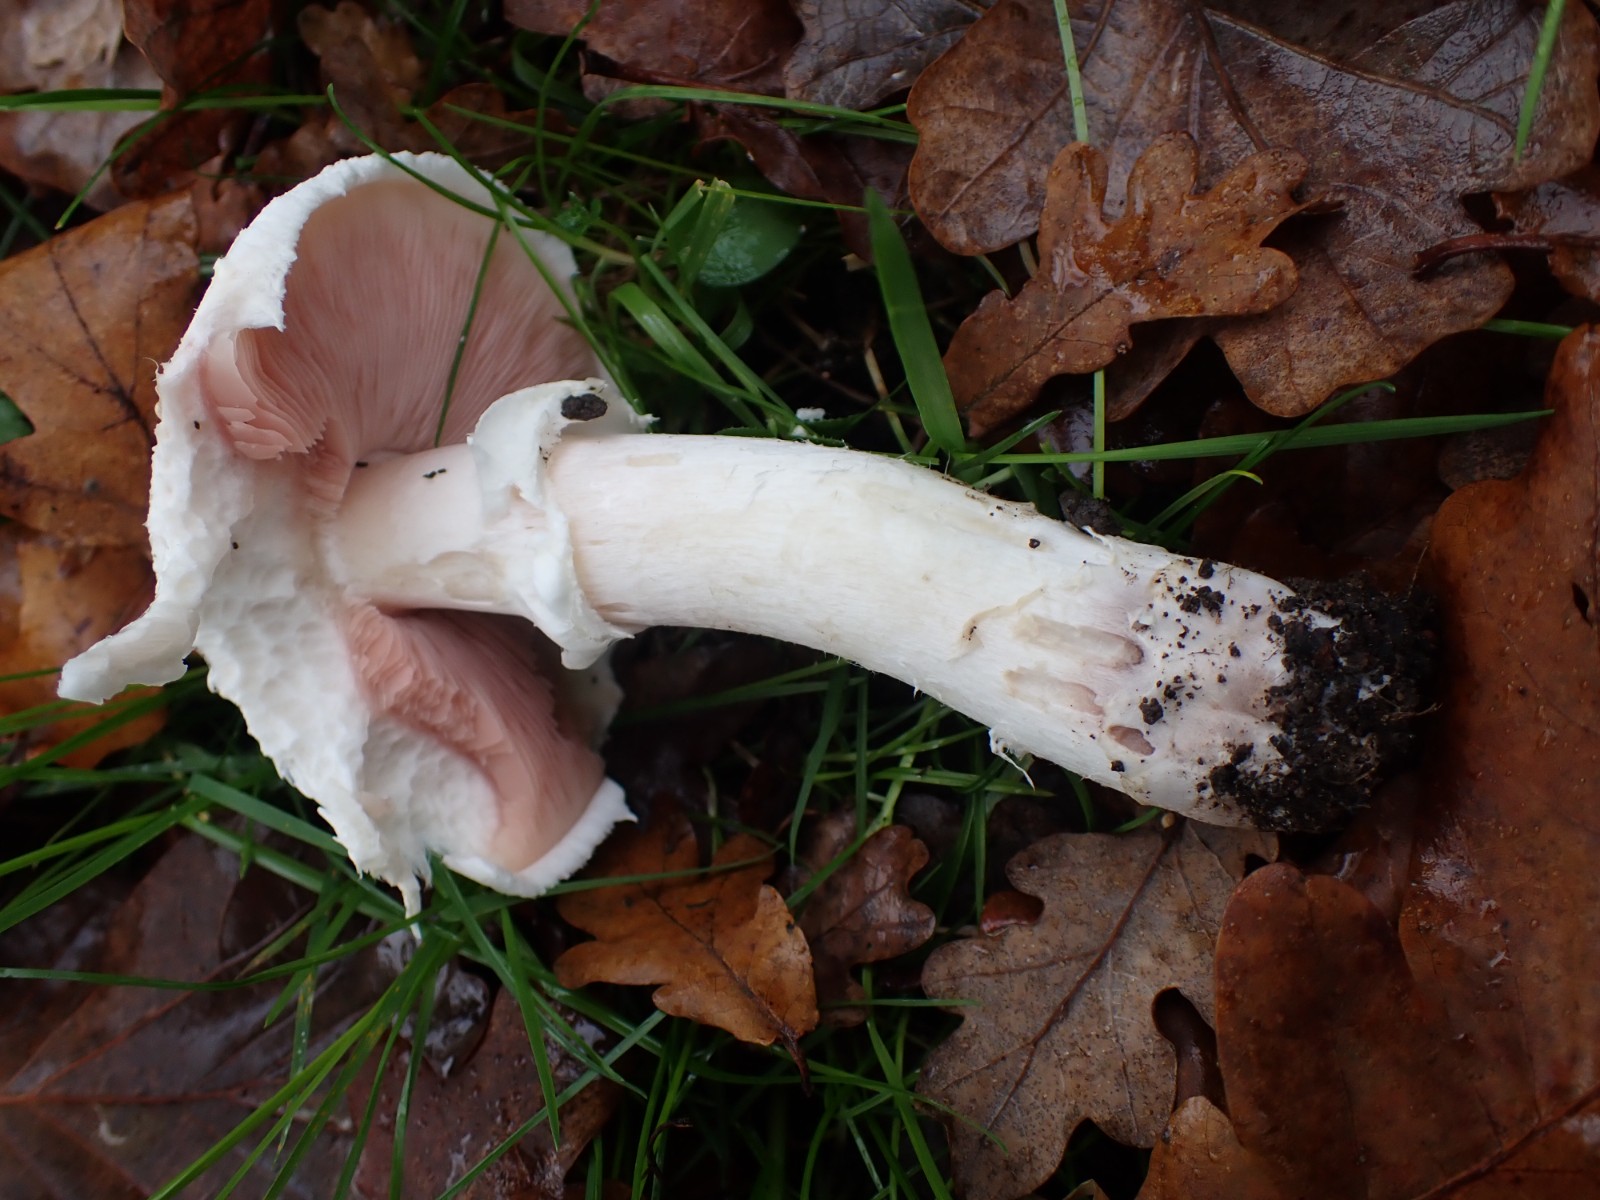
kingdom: Fungi
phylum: Basidiomycota
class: Agaricomycetes
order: Agaricales
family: Agaricaceae
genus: Agaricus
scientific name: Agaricus
